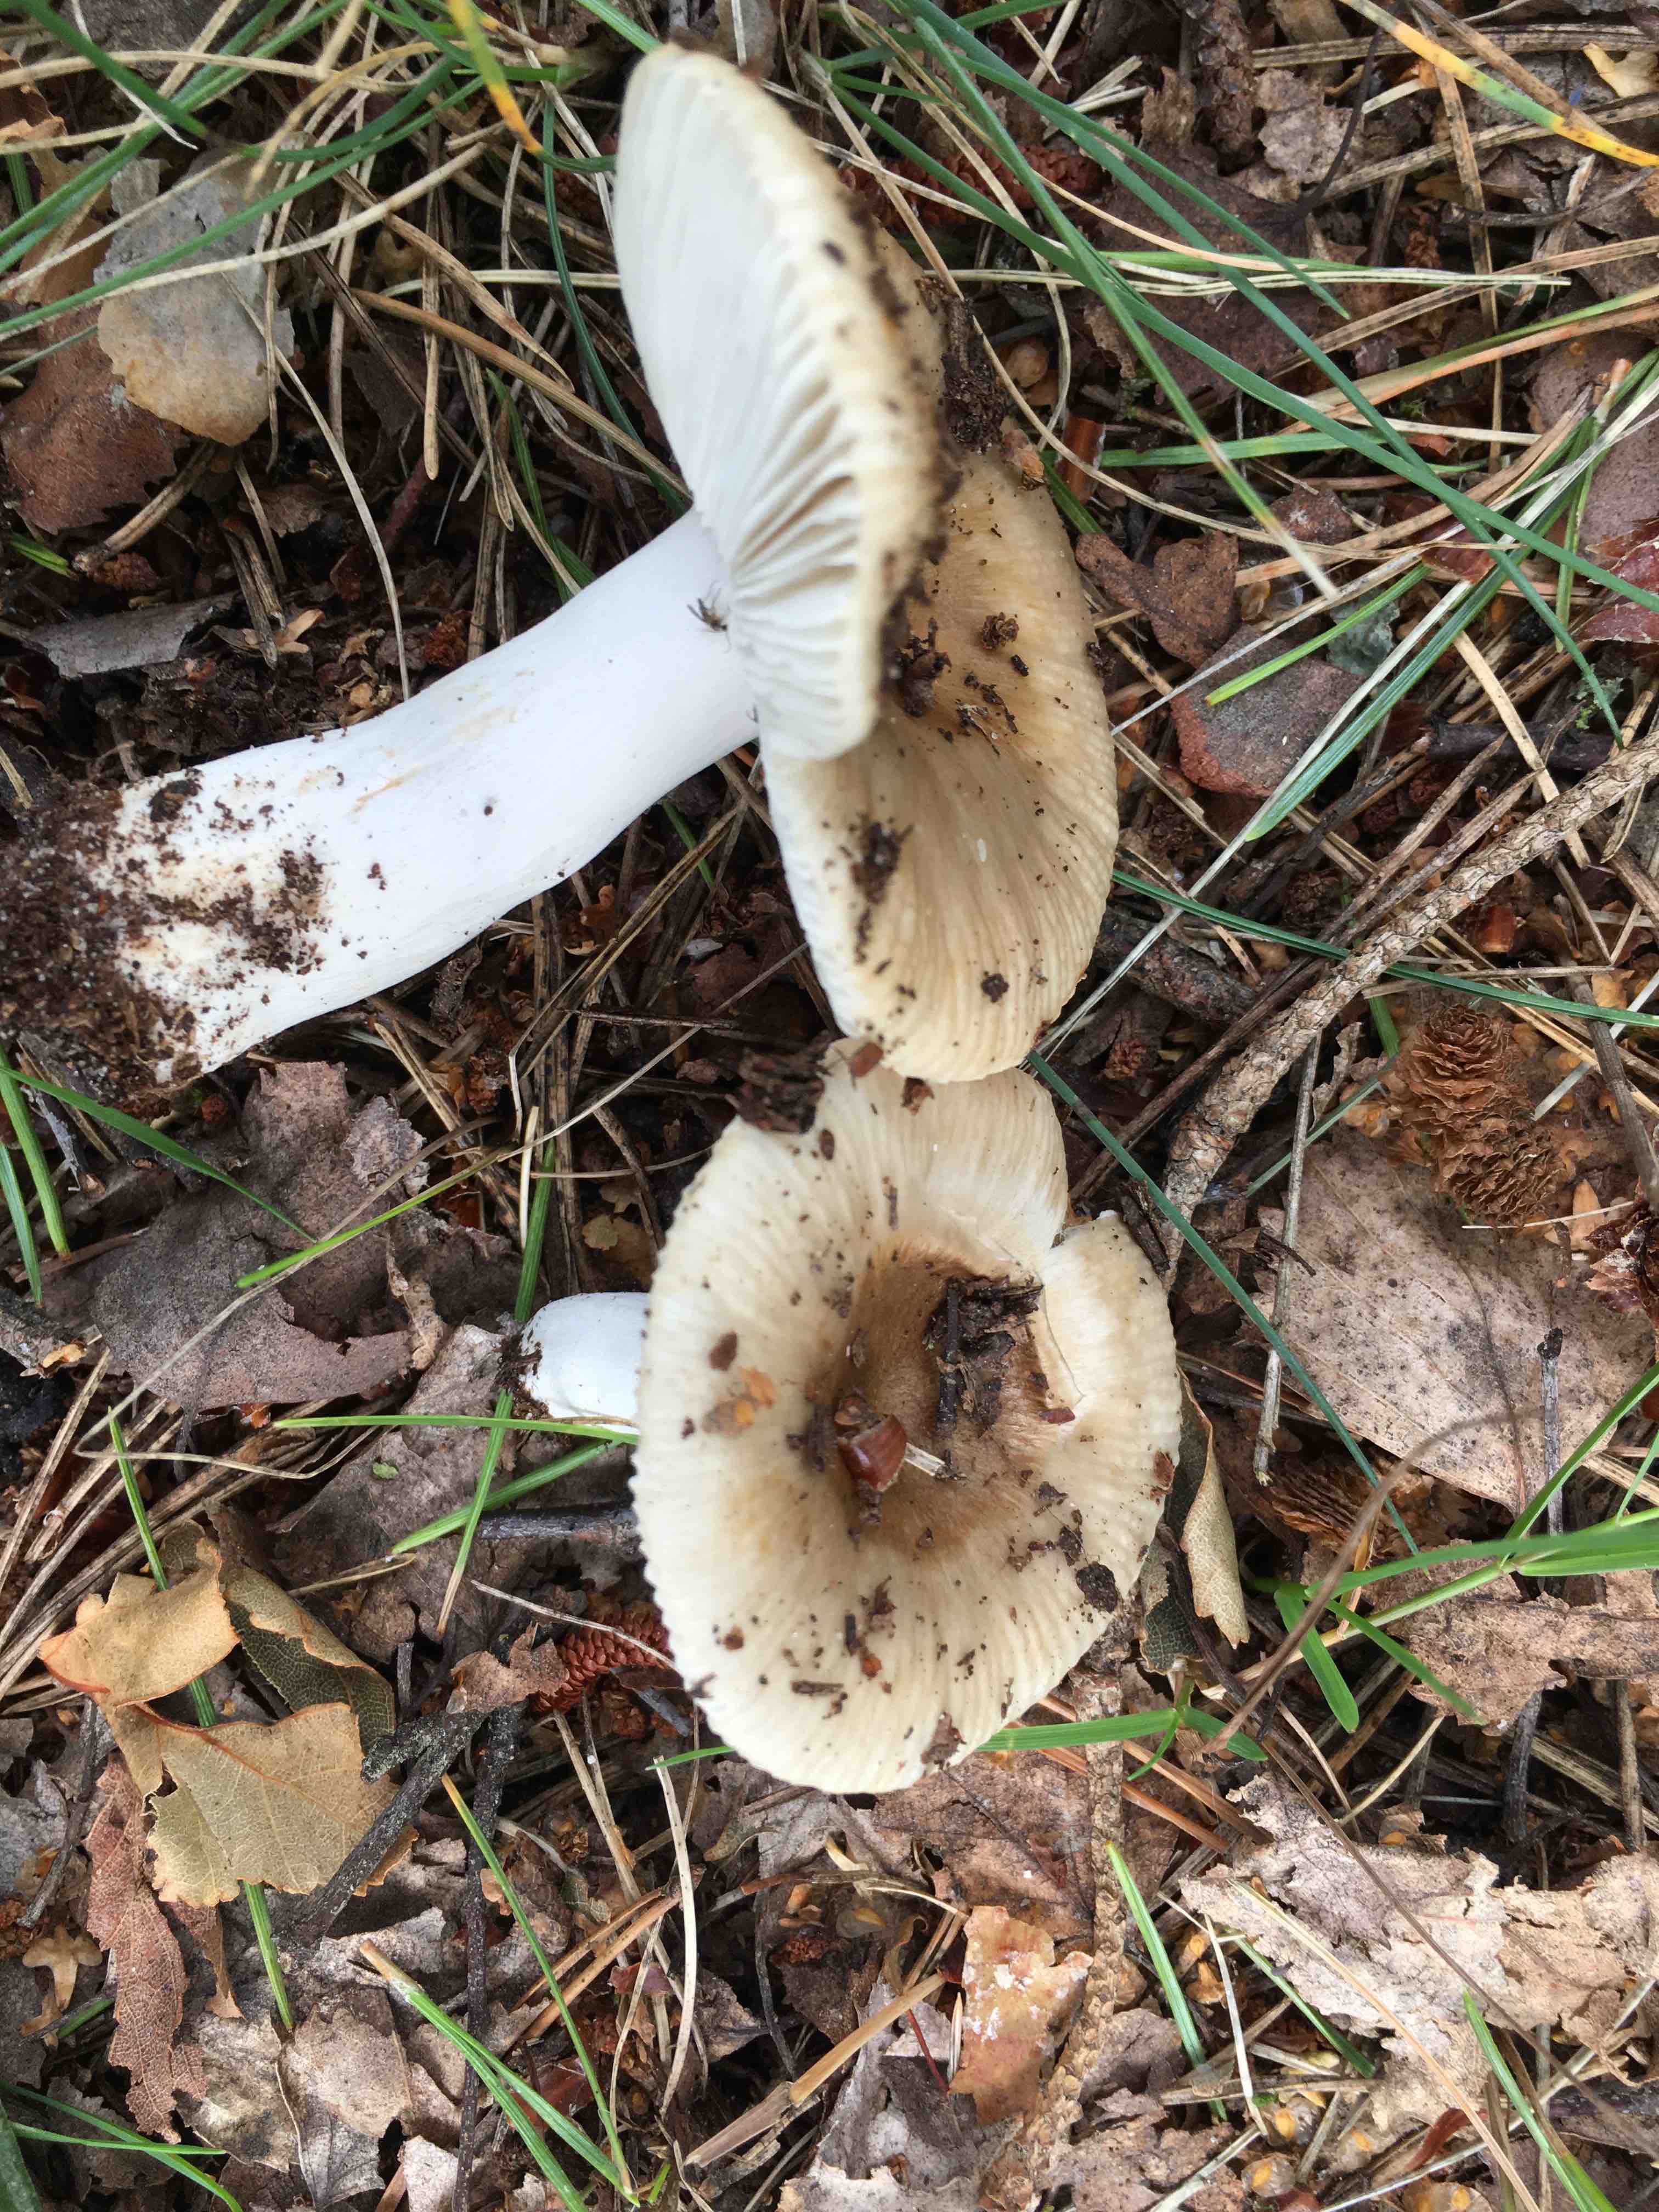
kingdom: Fungi
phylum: Basidiomycota
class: Agaricomycetes
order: Russulales
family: Russulaceae
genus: Russula
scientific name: Russula recondita
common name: mild kam-skørhat
